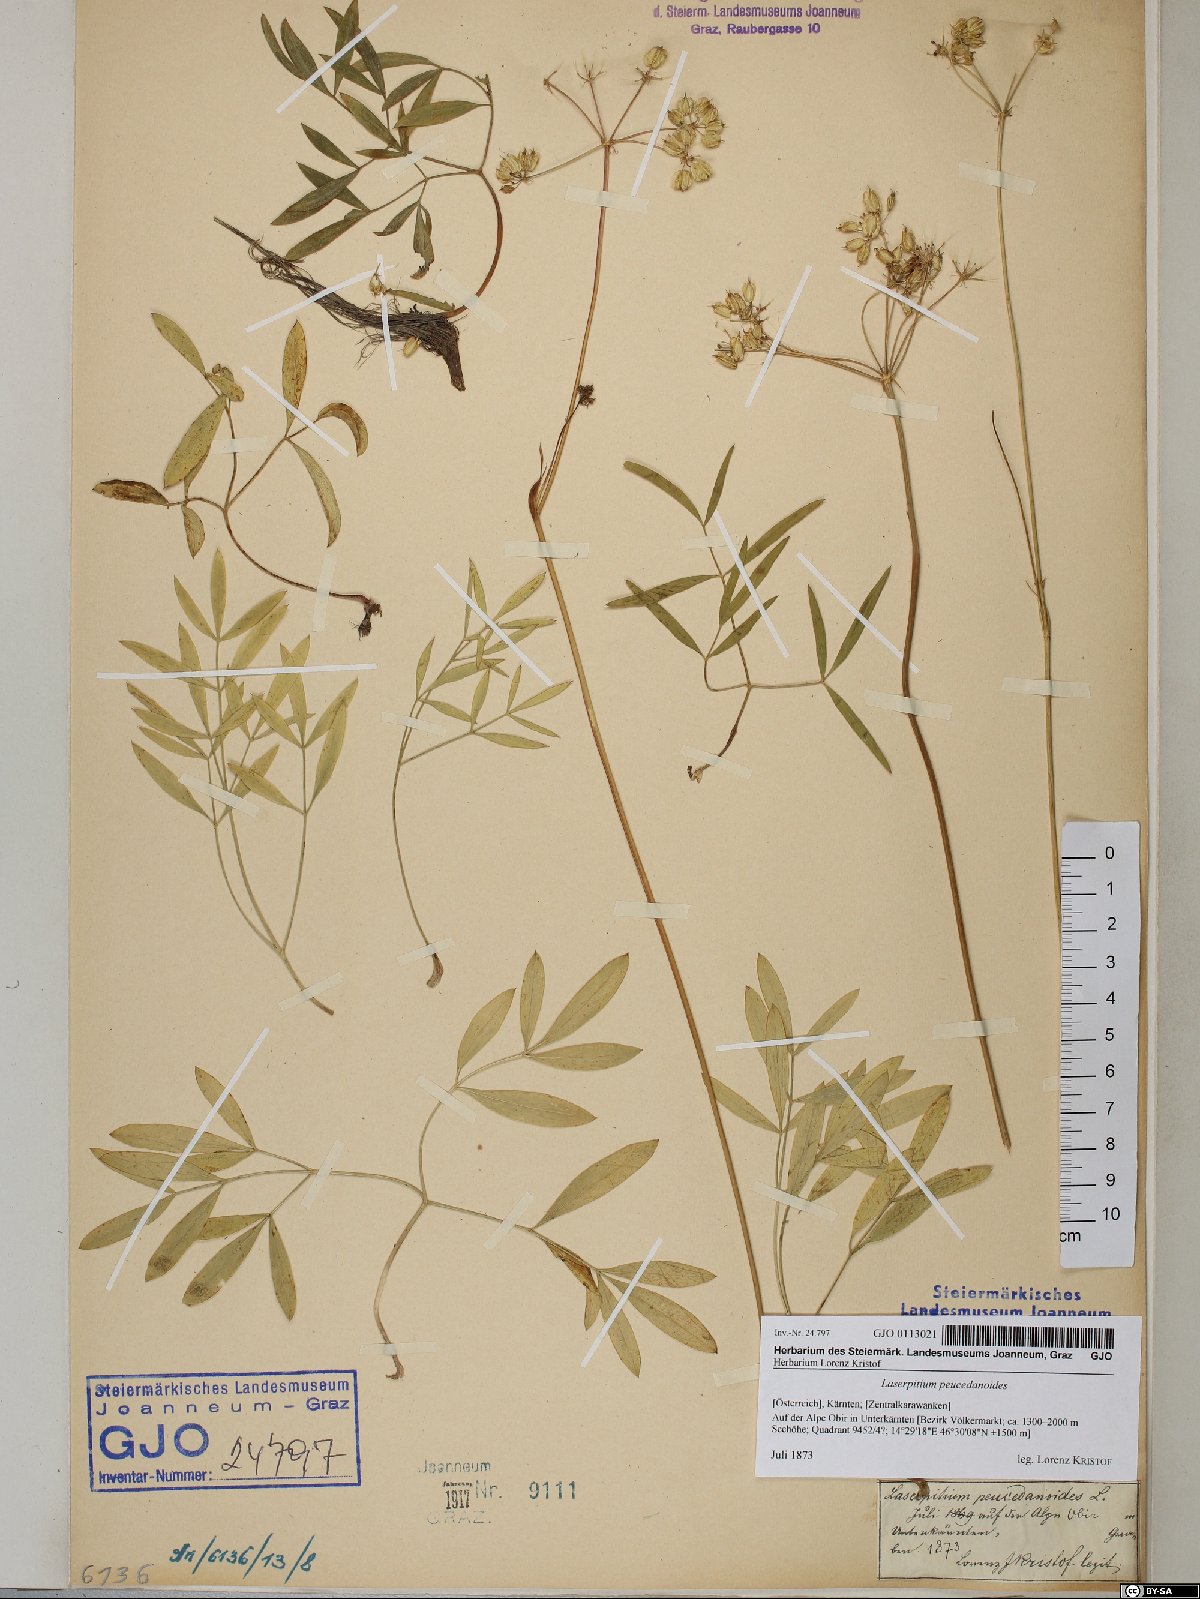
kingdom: Plantae
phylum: Tracheophyta
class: Magnoliopsida
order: Apiales
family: Apiaceae
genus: Laserpitium
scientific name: Laserpitium peucedanoides
